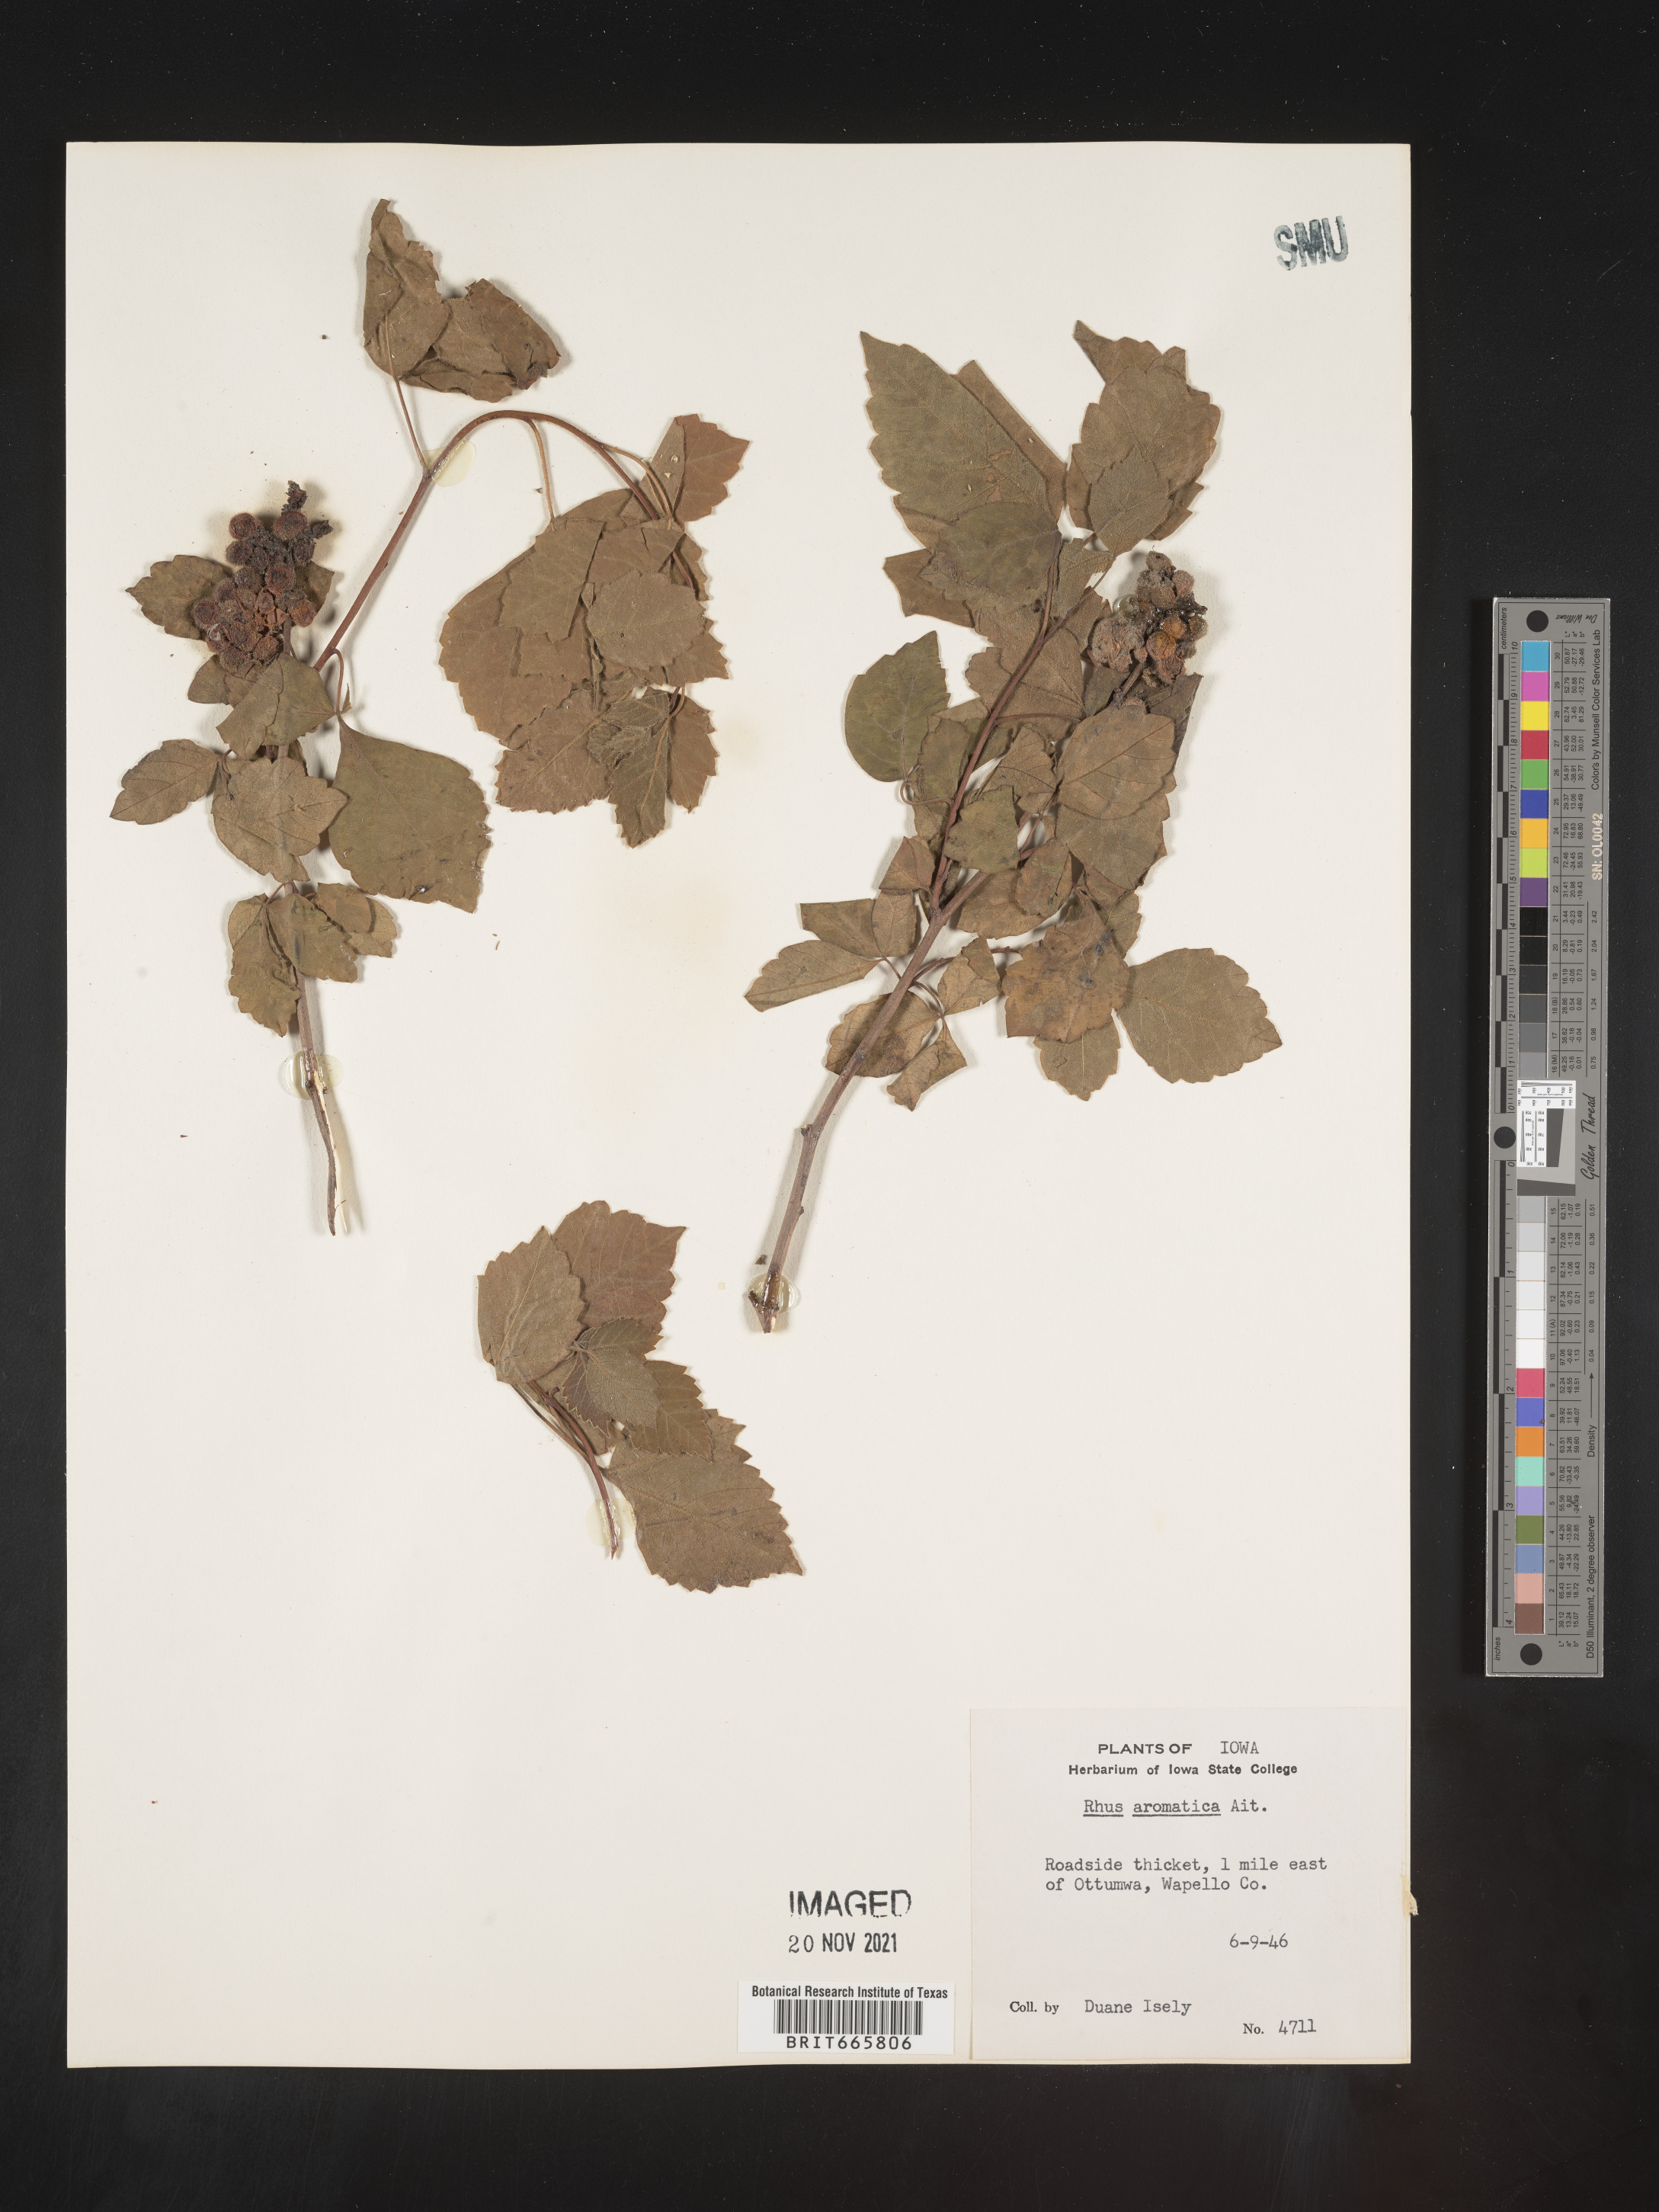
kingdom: Plantae
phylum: Tracheophyta
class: Magnoliopsida
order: Sapindales
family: Anacardiaceae
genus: Rhus
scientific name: Rhus aromatica
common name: Aromatic sumac
